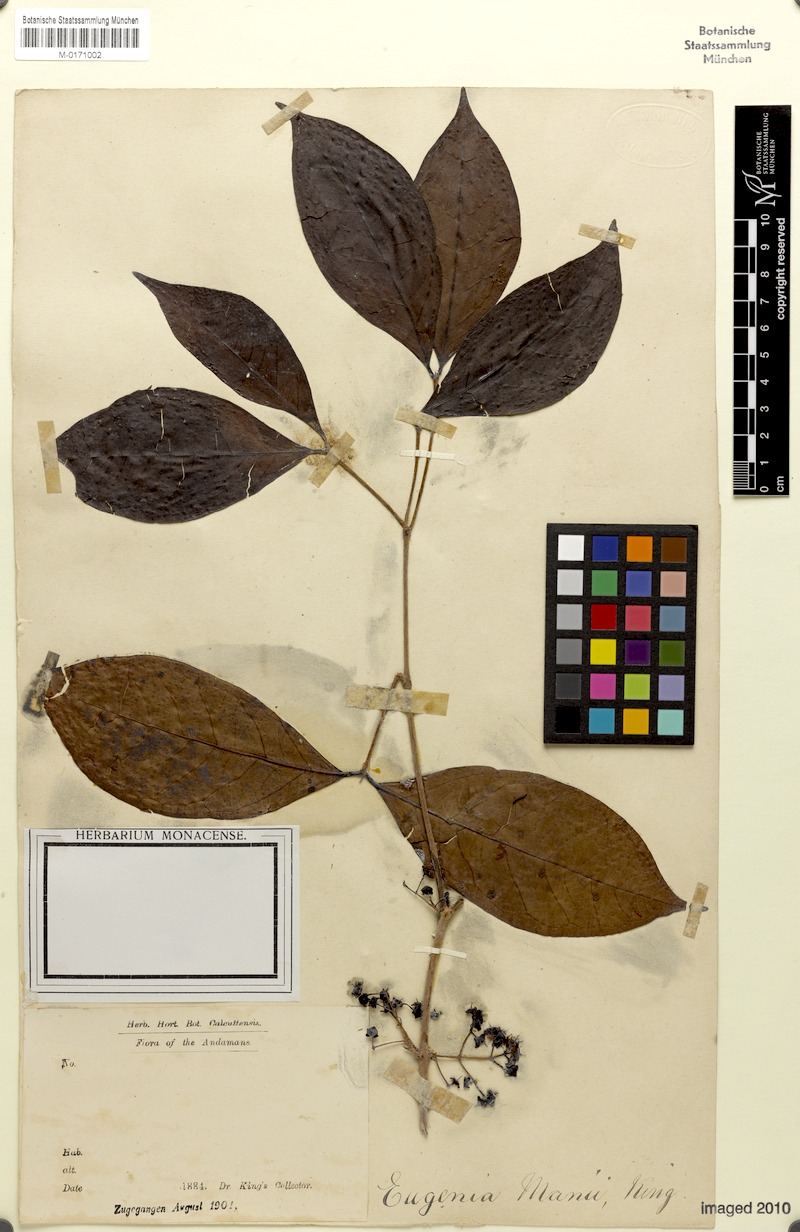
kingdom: Plantae
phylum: Tracheophyta
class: Magnoliopsida
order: Myrtales
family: Myrtaceae
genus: Syzygium
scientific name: Syzygium manii
